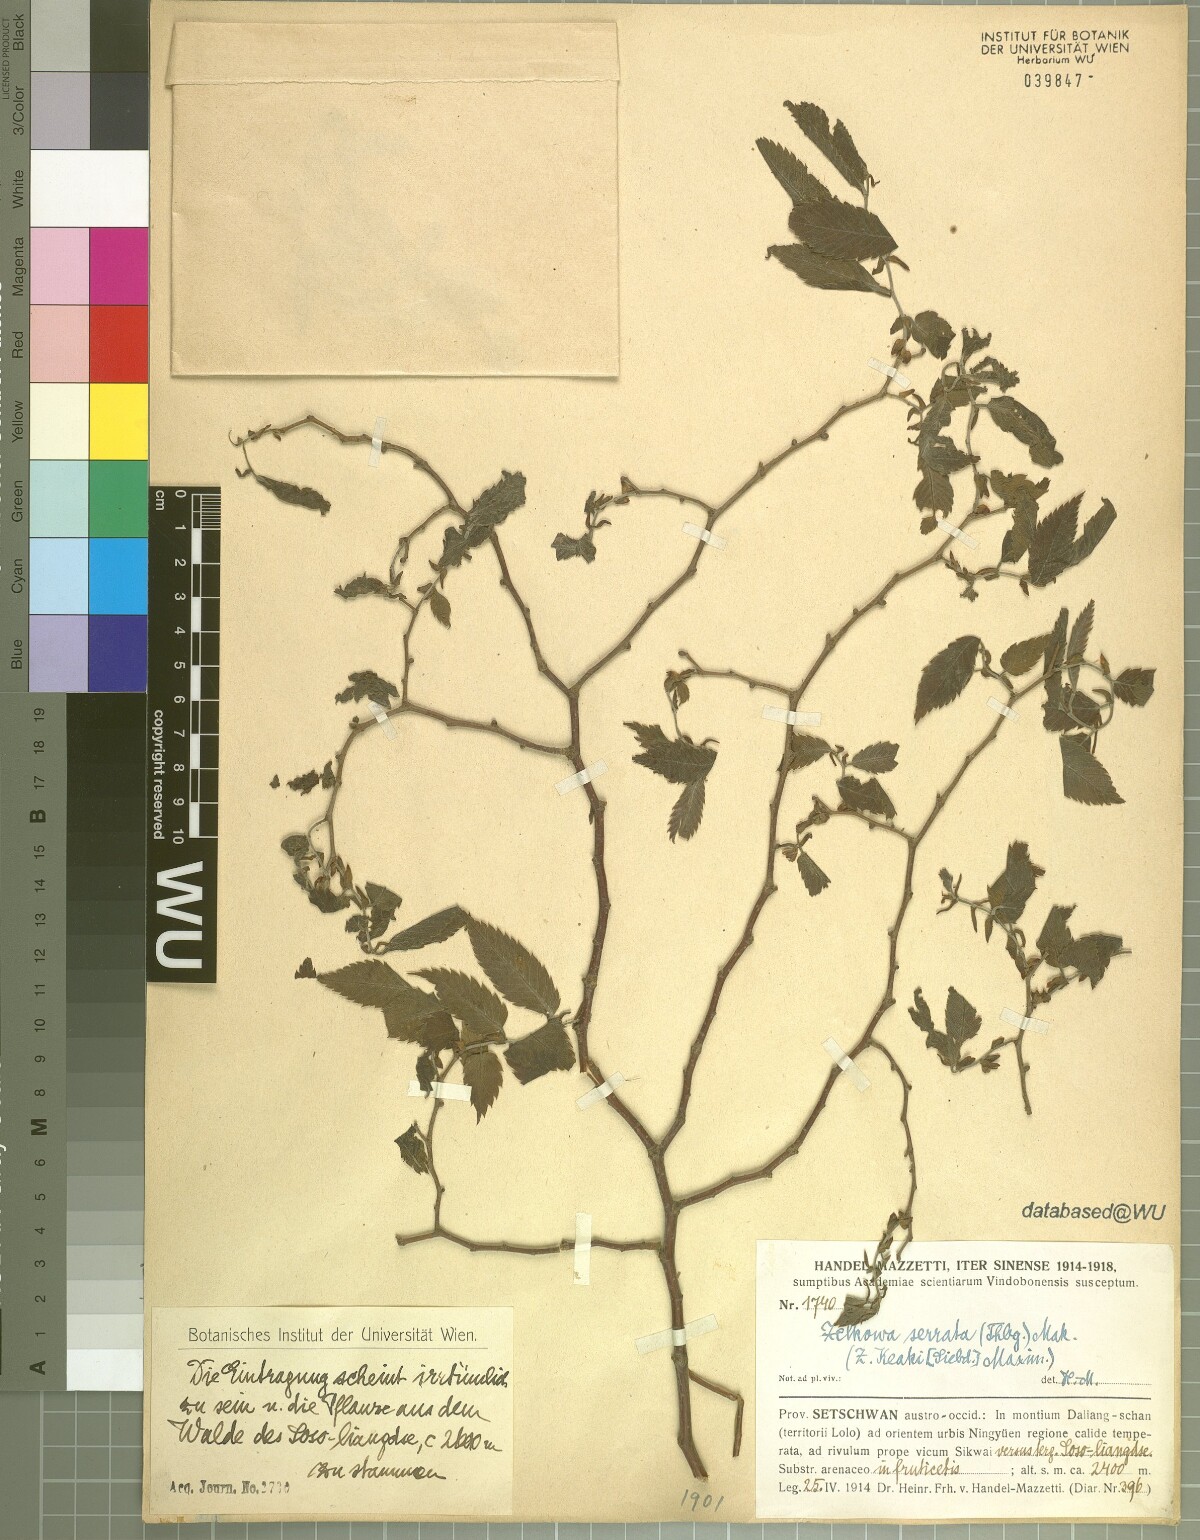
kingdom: Plantae
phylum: Tracheophyta
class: Magnoliopsida
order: Rosales
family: Ulmaceae
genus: Zelkova
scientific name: Zelkova serrata
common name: Japanese zelkova
